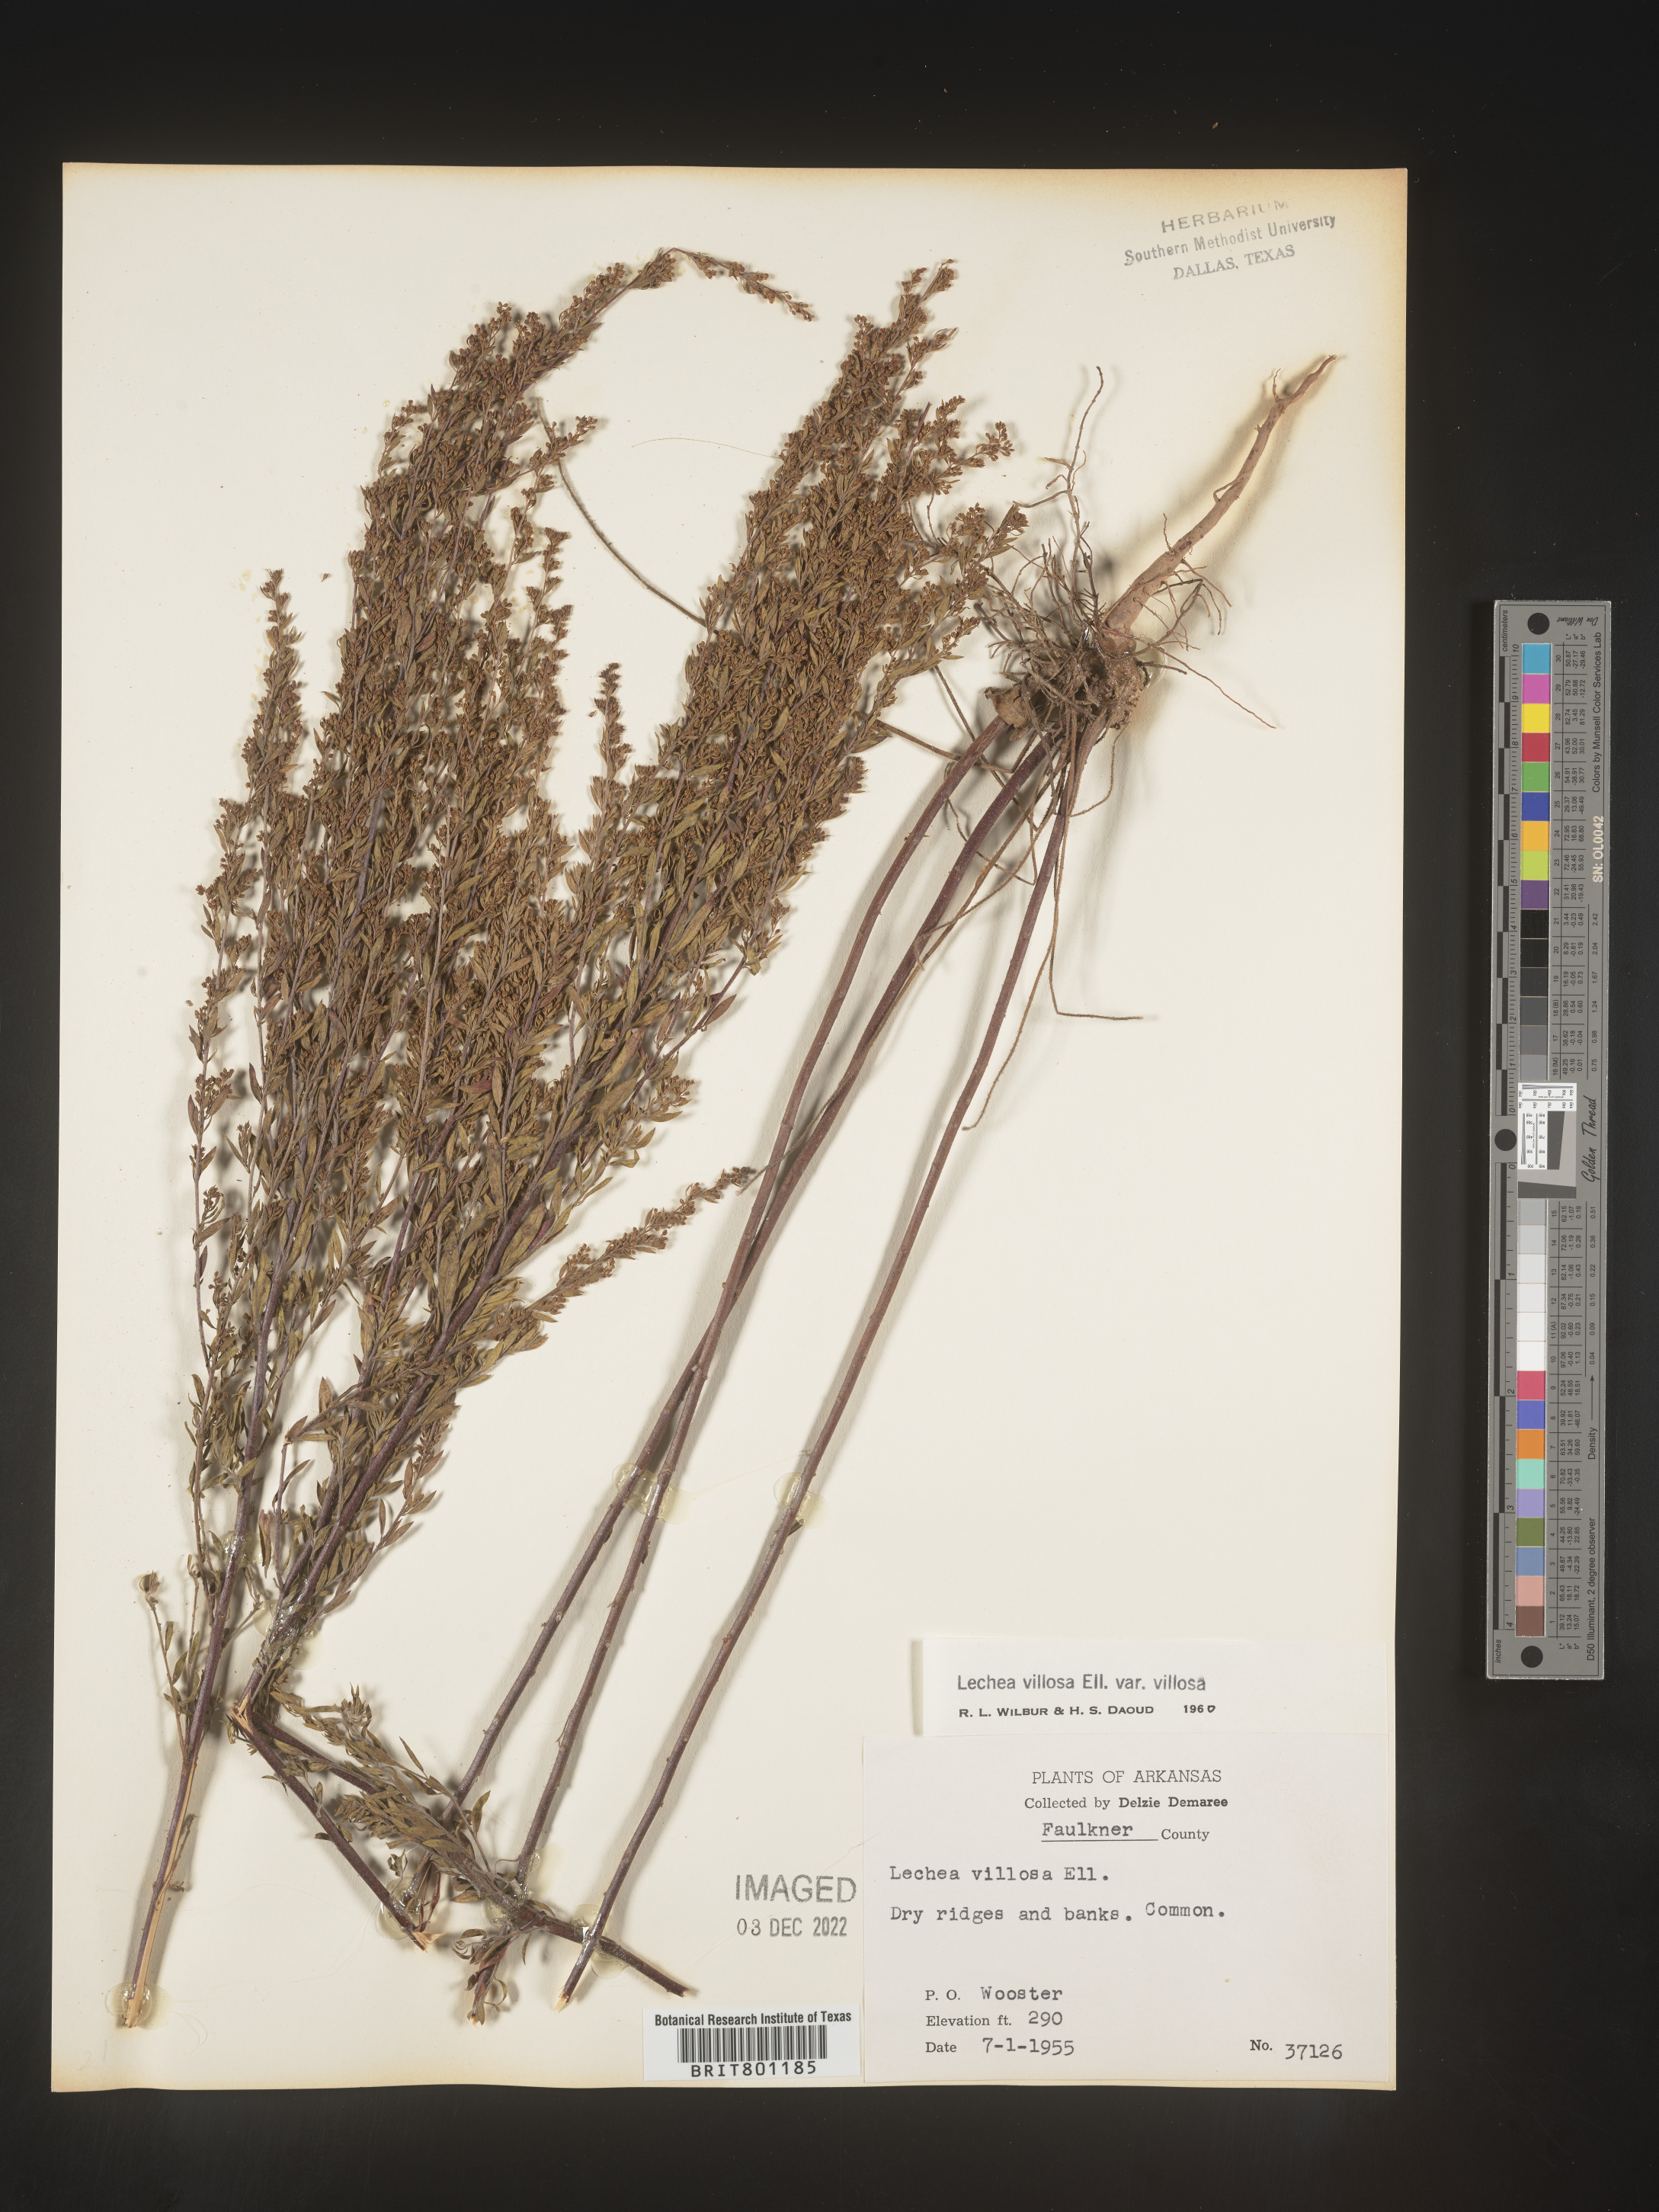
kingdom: Plantae
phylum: Tracheophyta
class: Magnoliopsida
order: Malvales
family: Cistaceae
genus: Lechea
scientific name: Lechea mucronata
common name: Hairy pinweed
